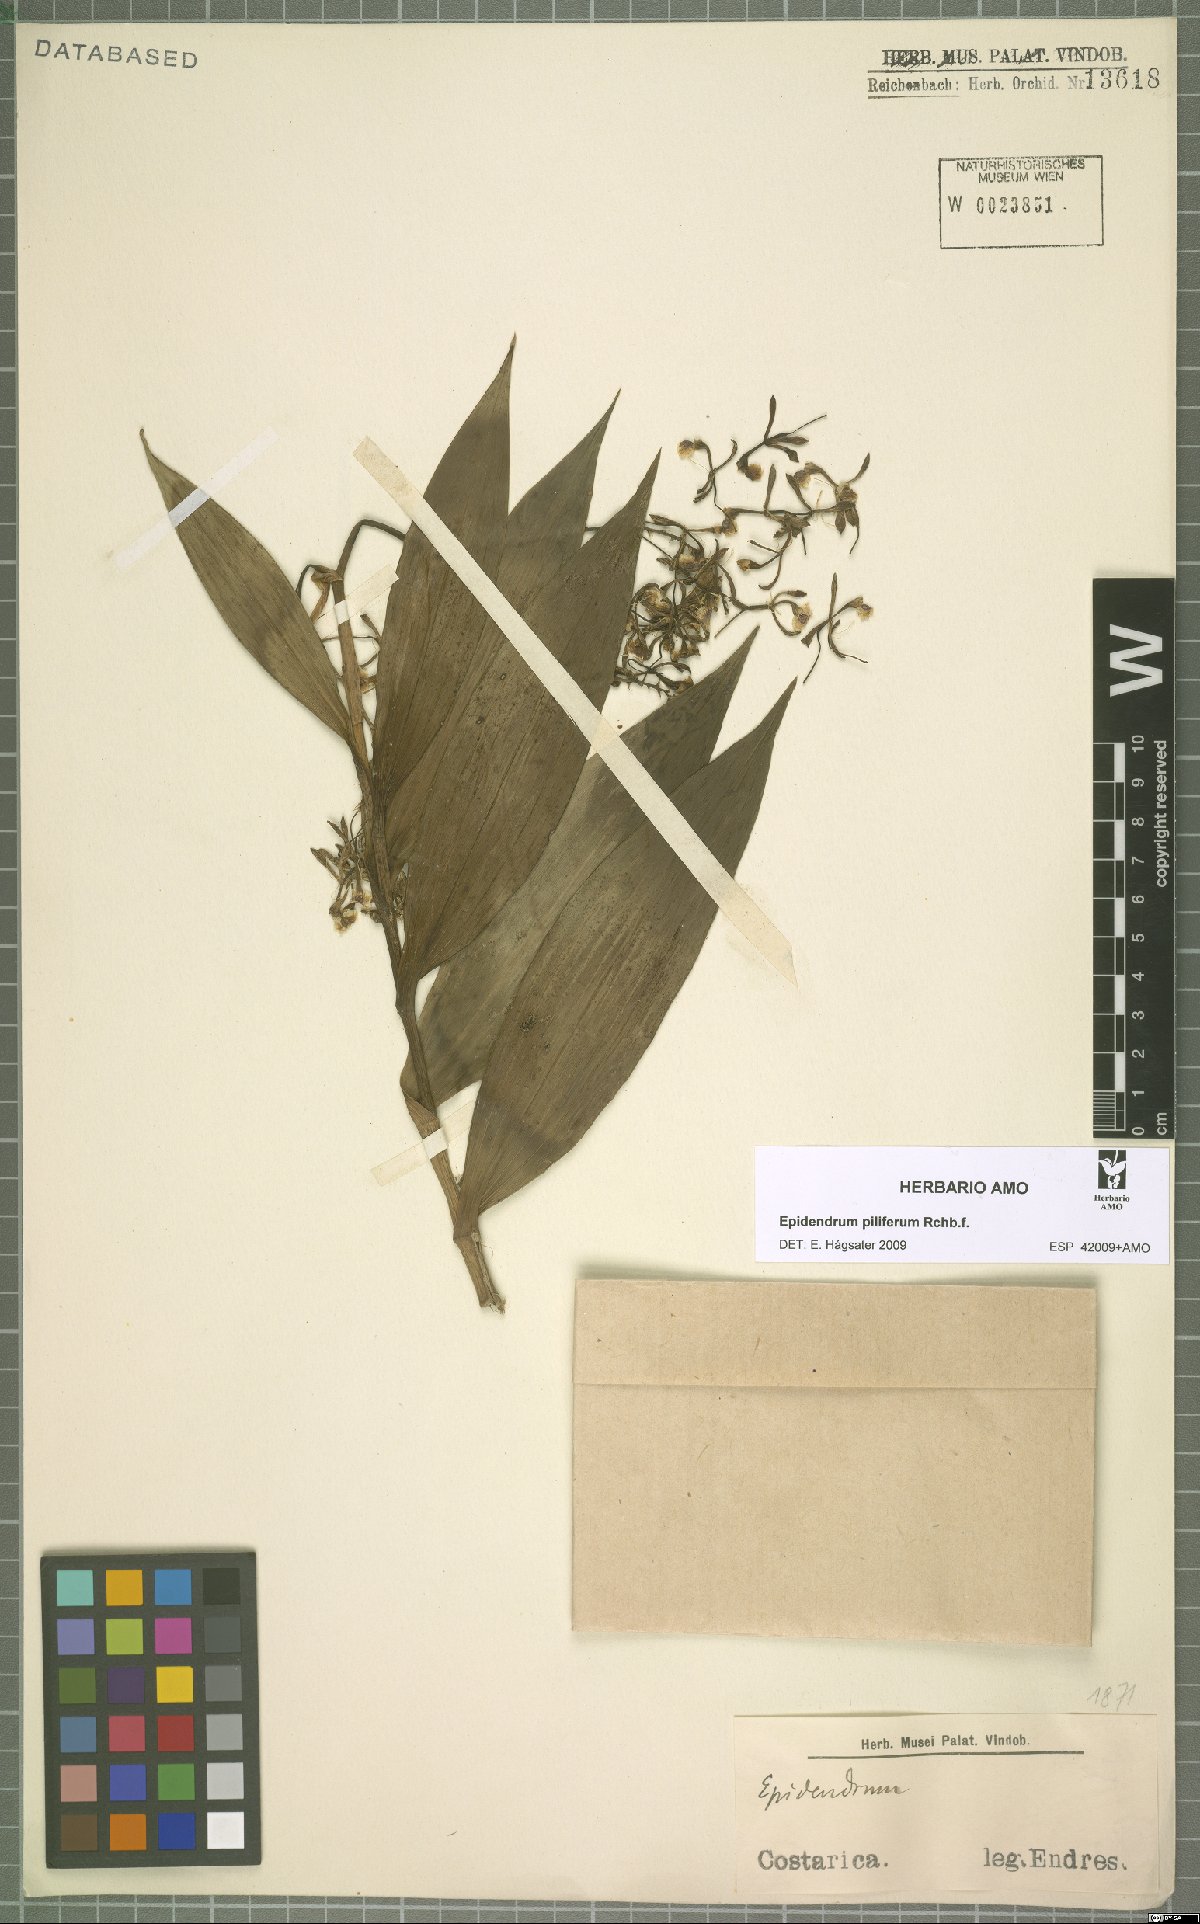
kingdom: Plantae
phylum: Tracheophyta
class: Liliopsida
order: Asparagales
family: Orchidaceae
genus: Epidendrum
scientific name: Epidendrum piliferum
